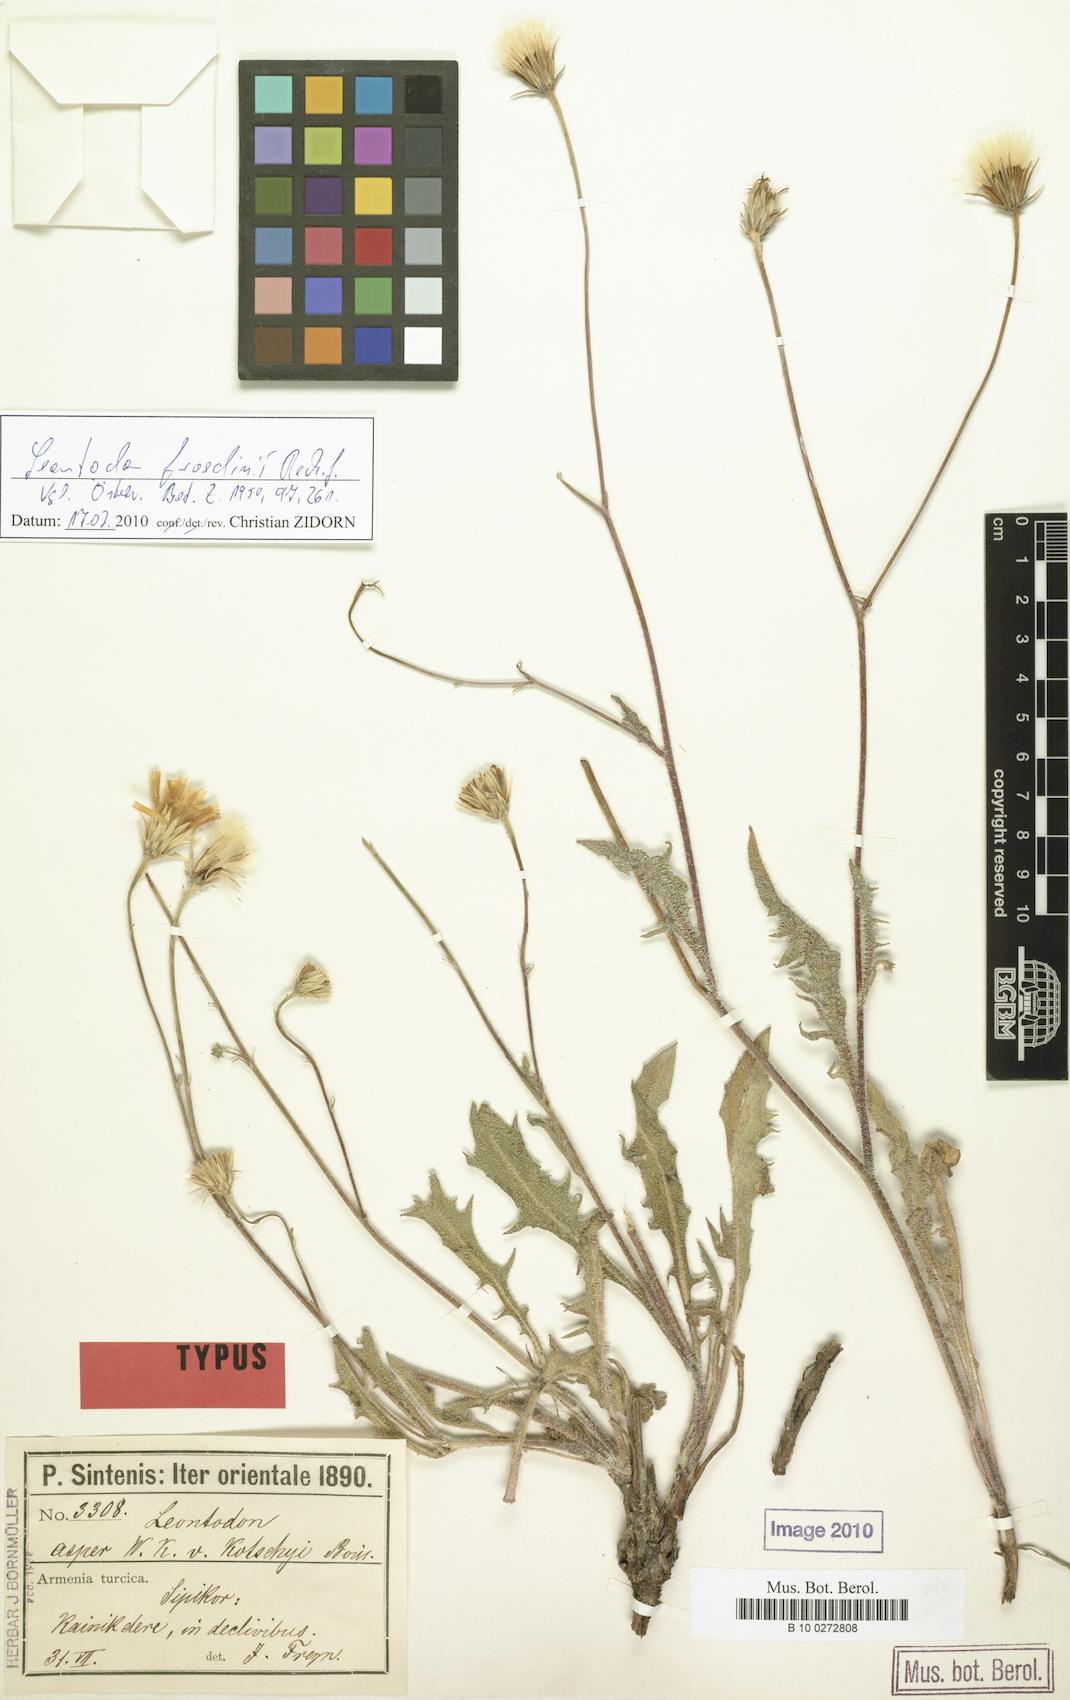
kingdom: Plantae
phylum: Tracheophyta
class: Magnoliopsida
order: Asterales
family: Asteraceae
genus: Leontodon
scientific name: Leontodon froedinii
